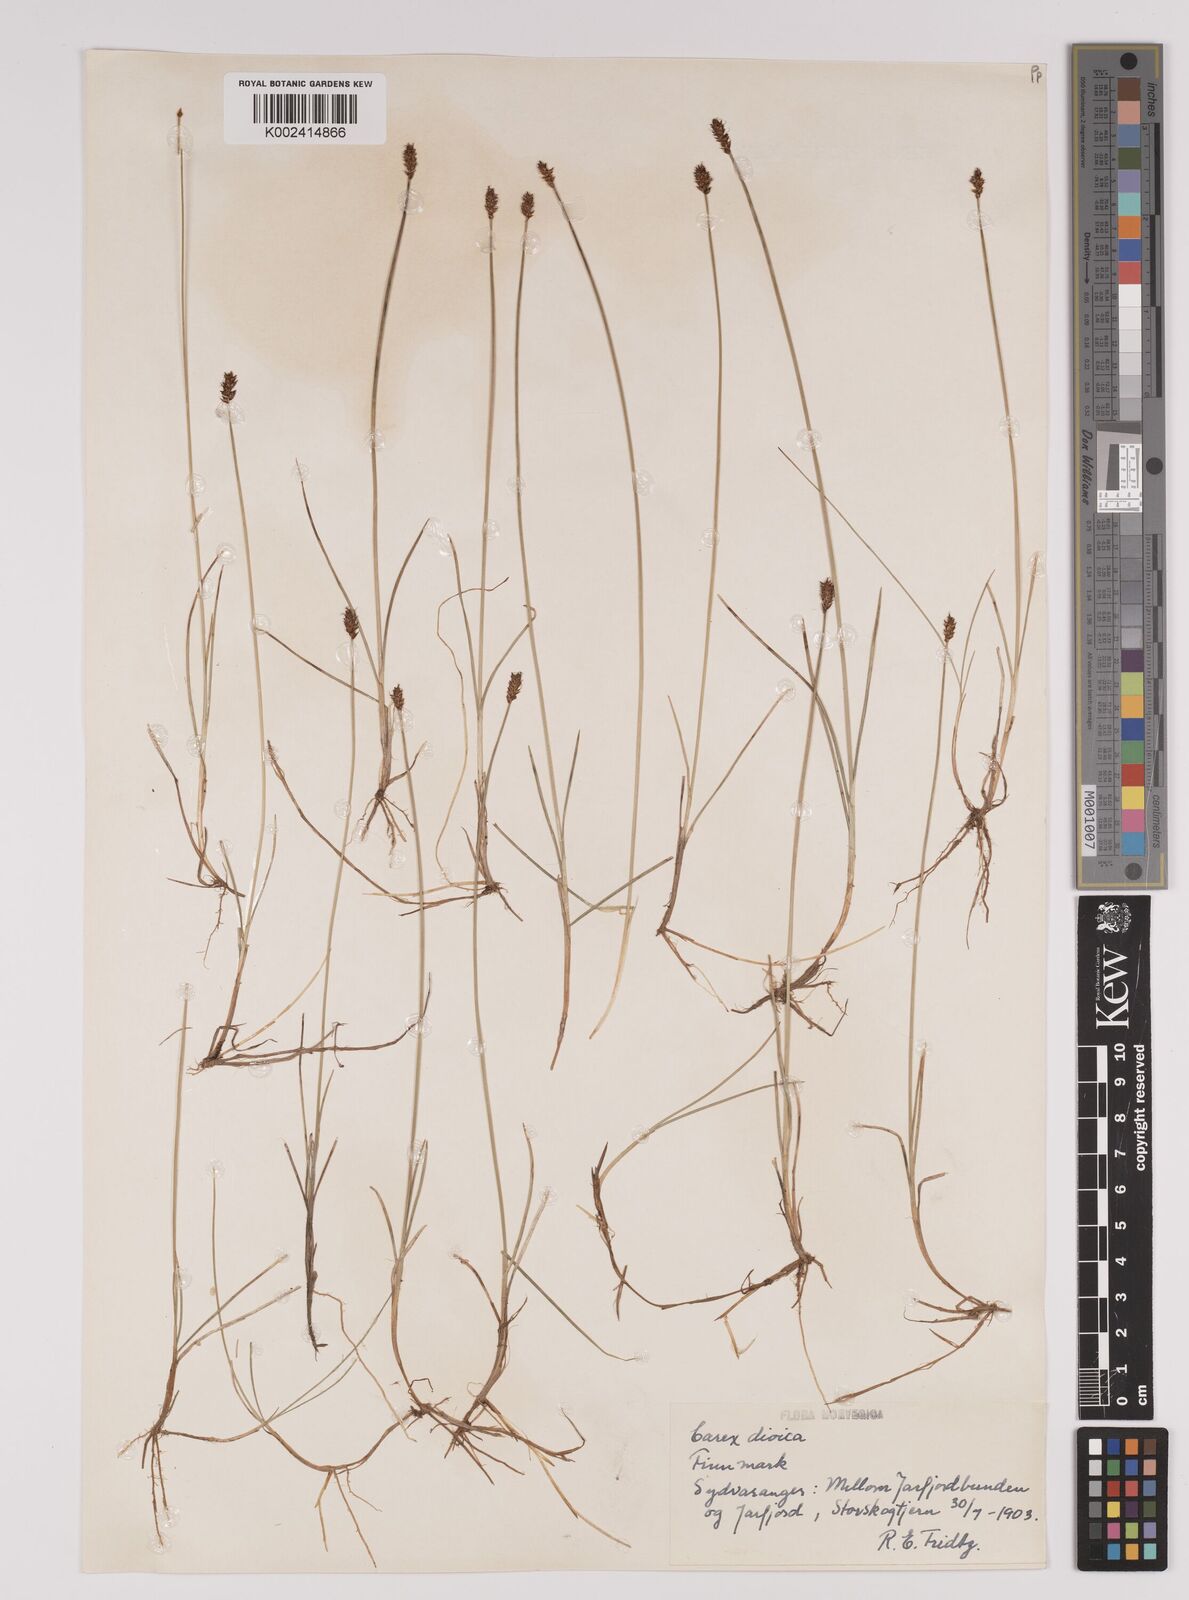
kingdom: Plantae
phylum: Tracheophyta
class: Liliopsida
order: Poales
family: Cyperaceae
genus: Carex
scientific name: Carex dioica
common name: Dioecious sedge
